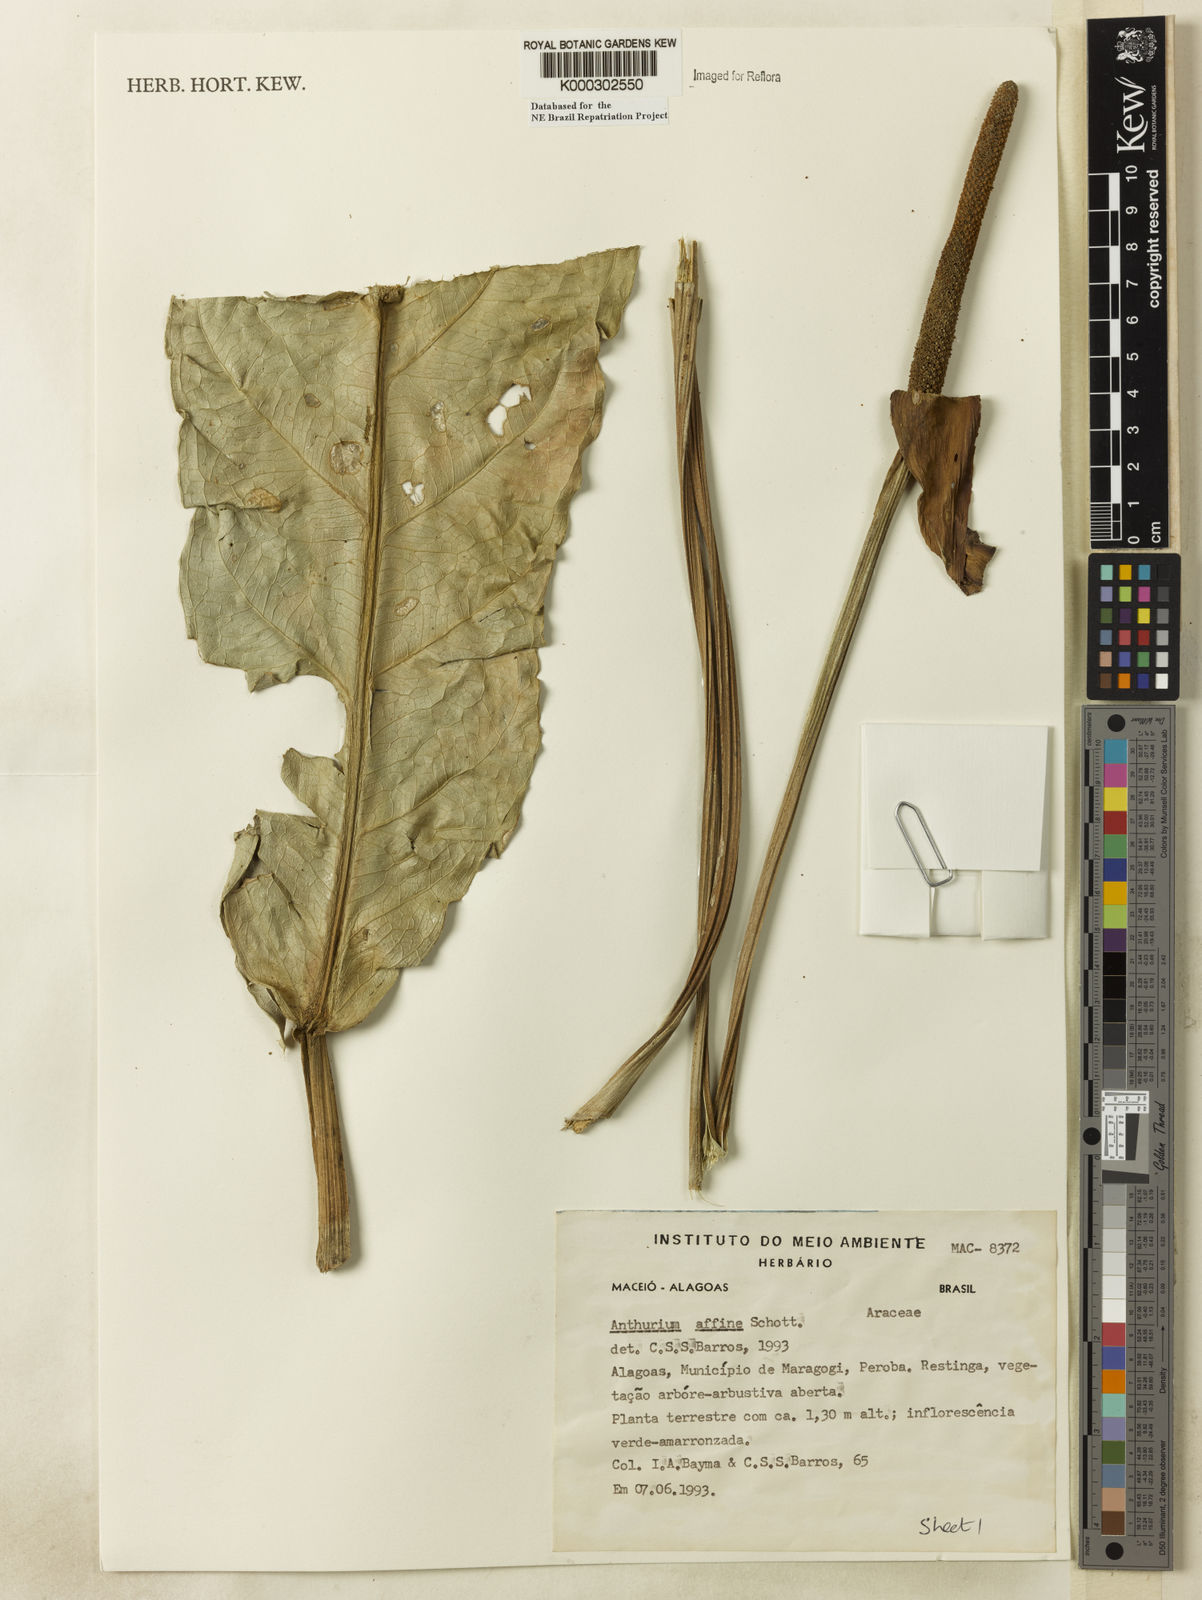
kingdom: Plantae
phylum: Tracheophyta
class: Liliopsida
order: Alismatales
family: Araceae
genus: Anthurium
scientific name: Anthurium affine
